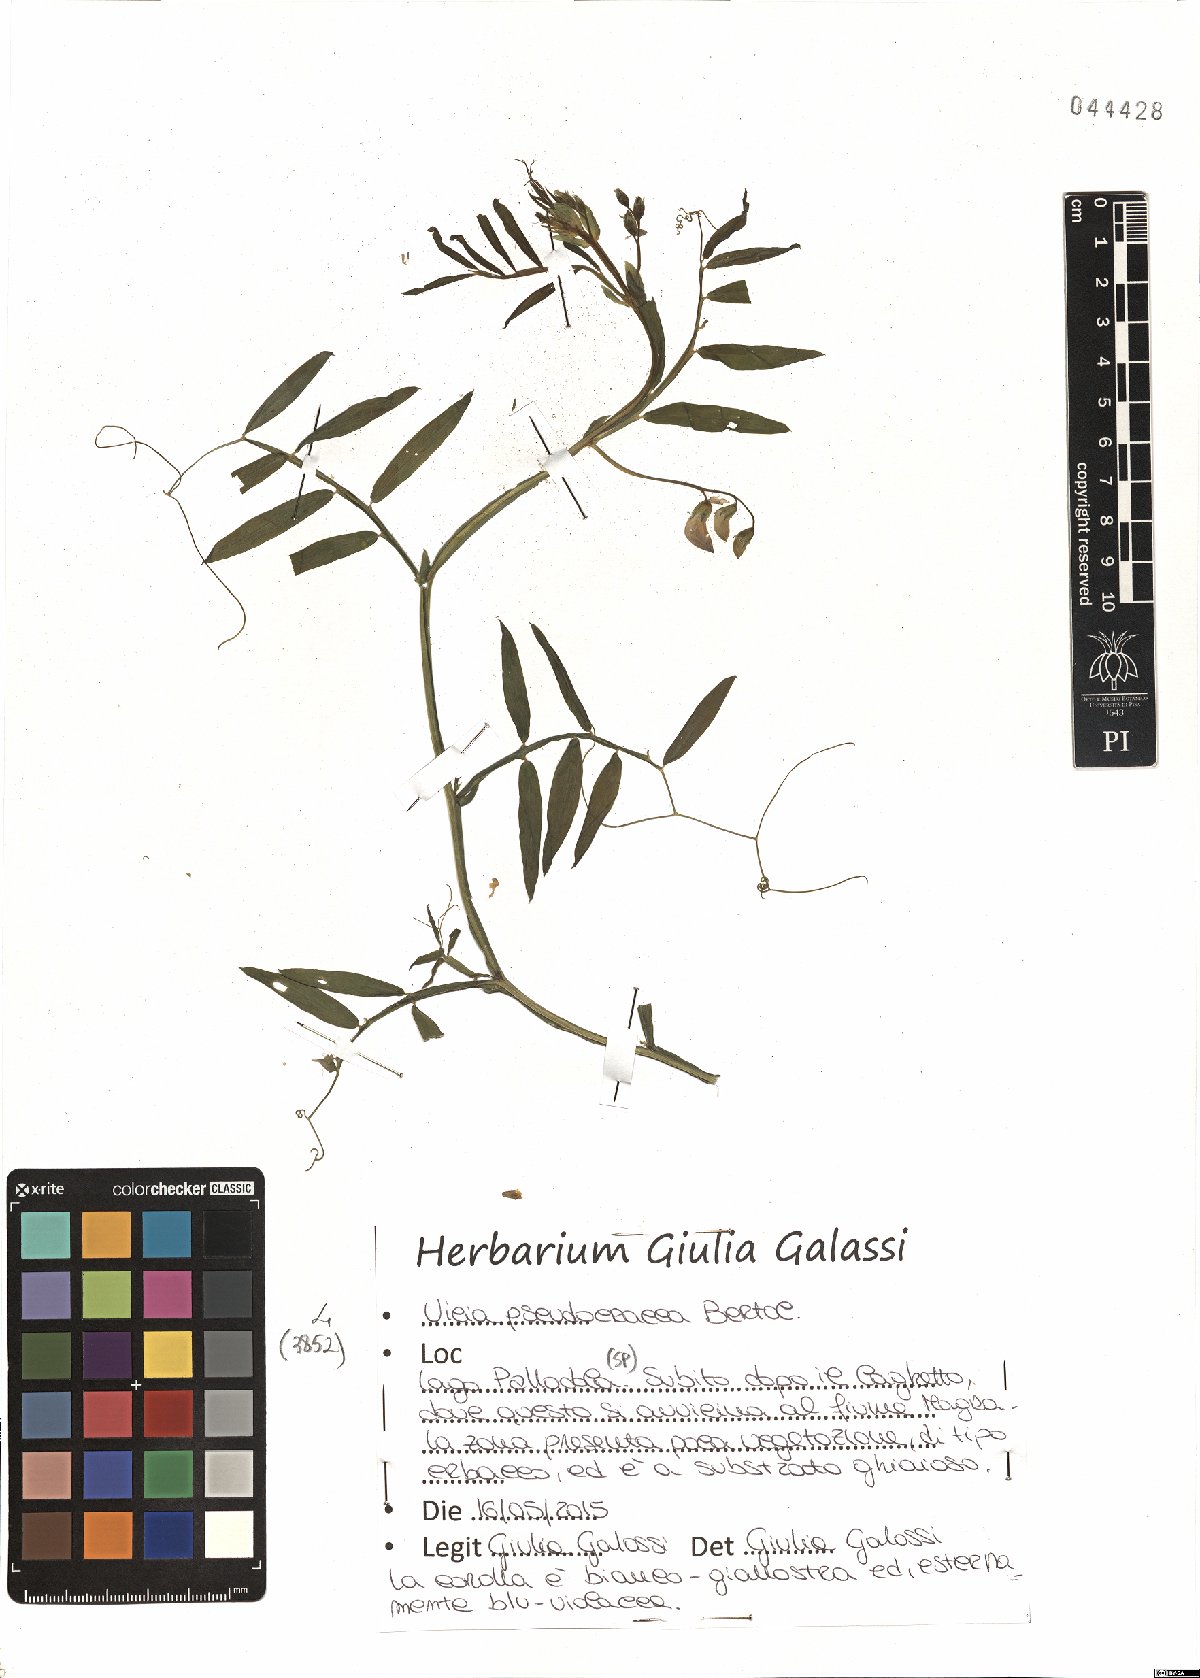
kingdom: Plantae
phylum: Tracheophyta
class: Magnoliopsida
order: Fabales
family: Fabaceae
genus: Vicia
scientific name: Vicia villosa
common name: Fodder vetch
